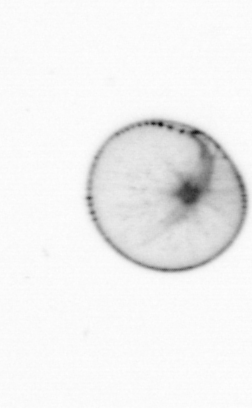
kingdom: Chromista
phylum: Myzozoa
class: Dinophyceae
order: Noctilucales
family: Noctilucaceae
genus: Noctiluca
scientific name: Noctiluca scintillans
